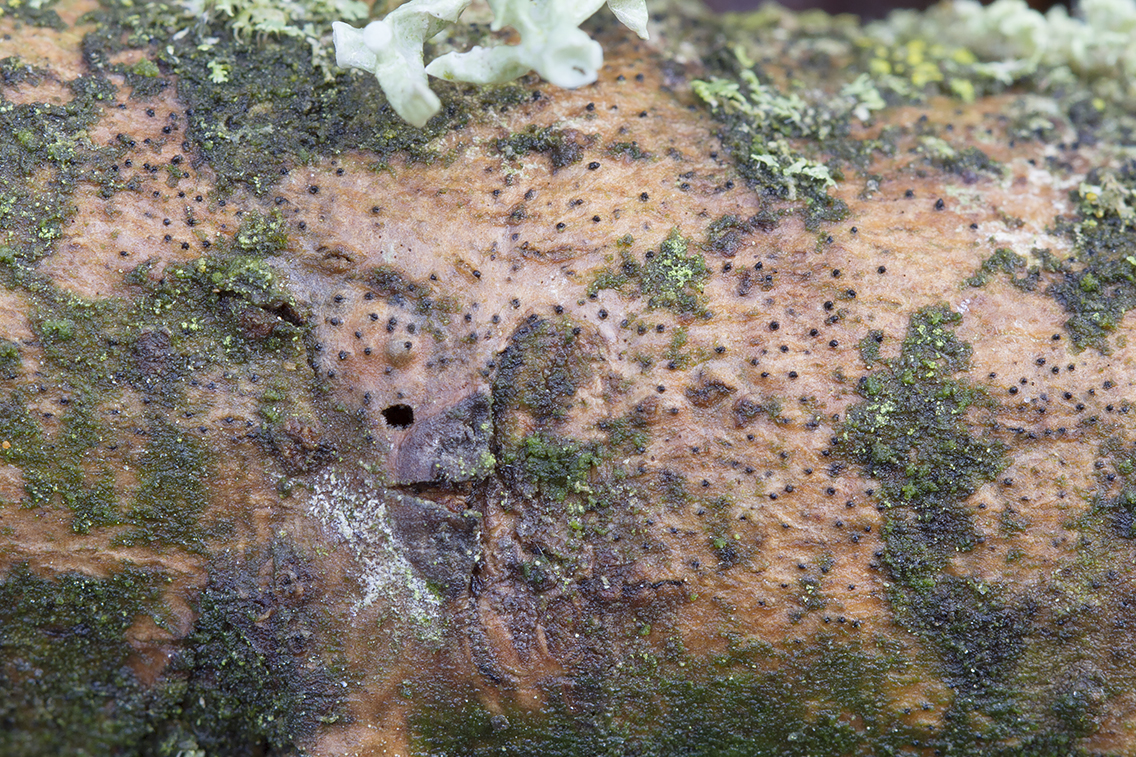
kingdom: Fungi
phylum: Ascomycota
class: Sordariomycetes
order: Xylariales
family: Diatrypaceae
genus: Cryptosphaeria
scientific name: Cryptosphaeria eunomia
